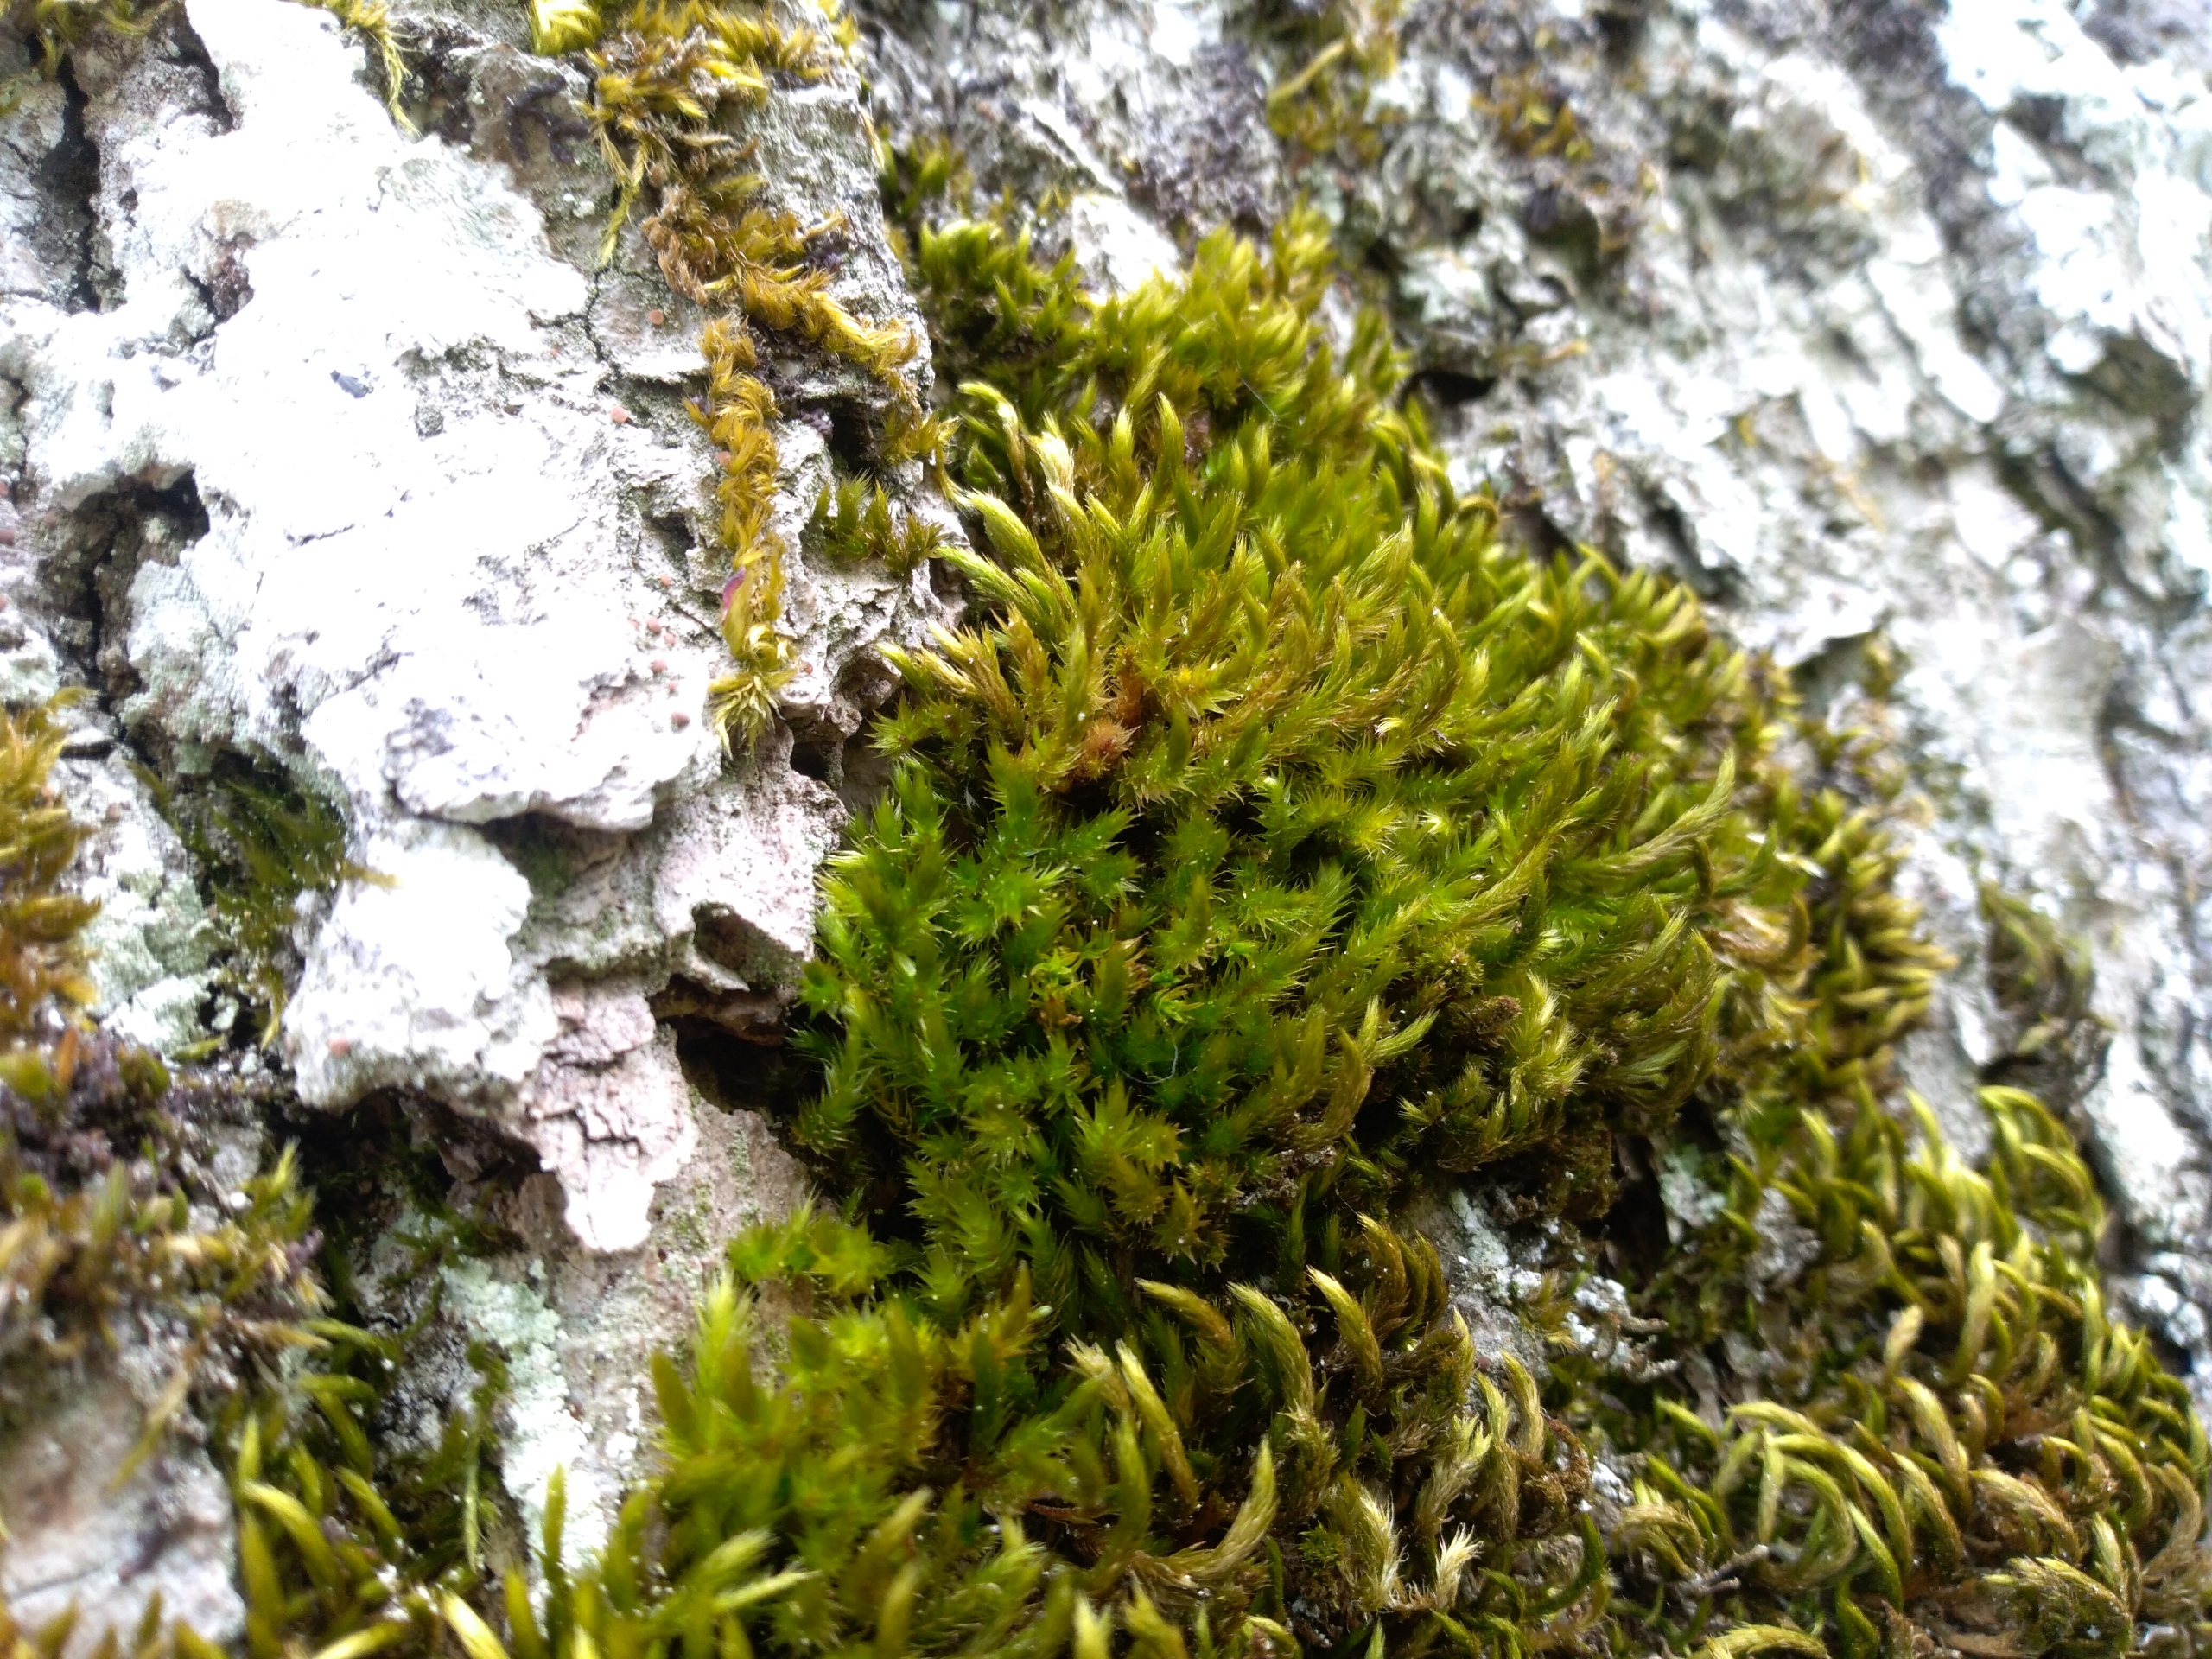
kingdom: Plantae
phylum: Bryophyta
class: Bryopsida
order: Hypnales
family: Leucodontaceae
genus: Leucodon
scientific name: Leucodon sciuroides
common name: Egernhale-buemos
